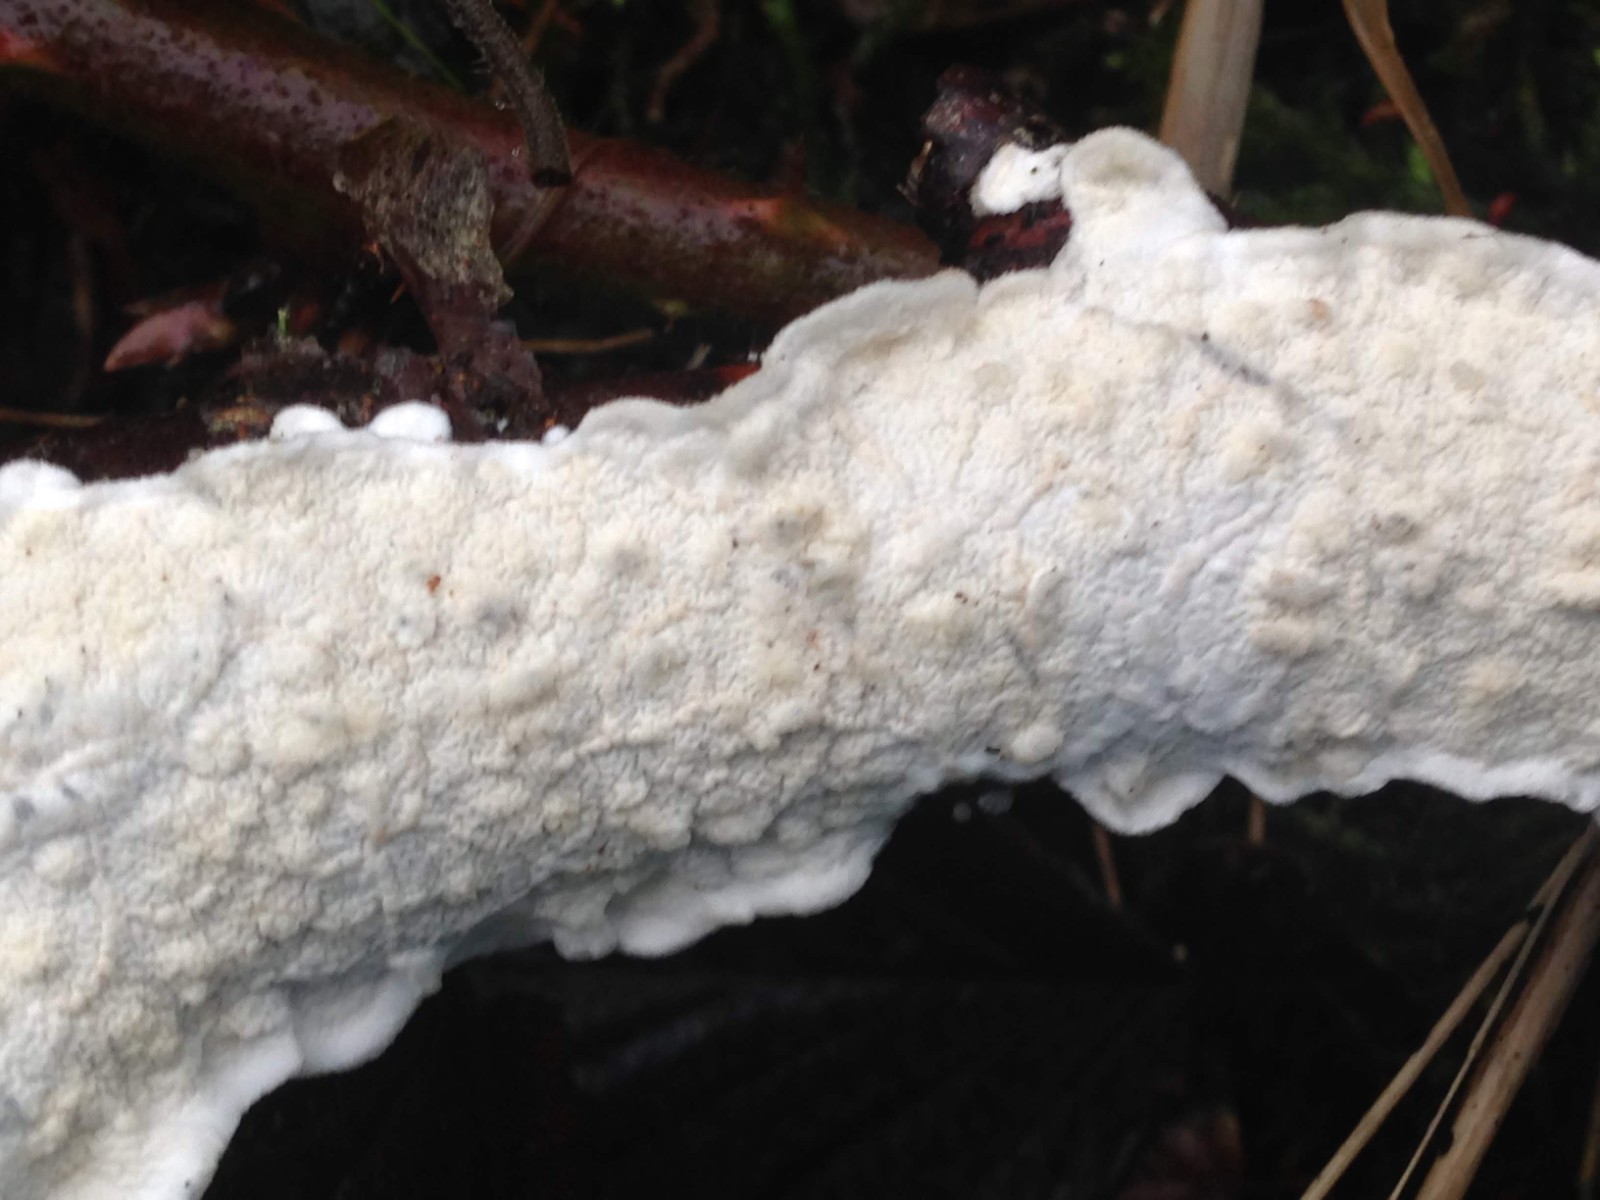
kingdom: Fungi
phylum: Basidiomycota
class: Agaricomycetes
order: Polyporales
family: Irpicaceae
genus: Byssomerulius
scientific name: Byssomerulius corium
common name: læder-åresvamp
